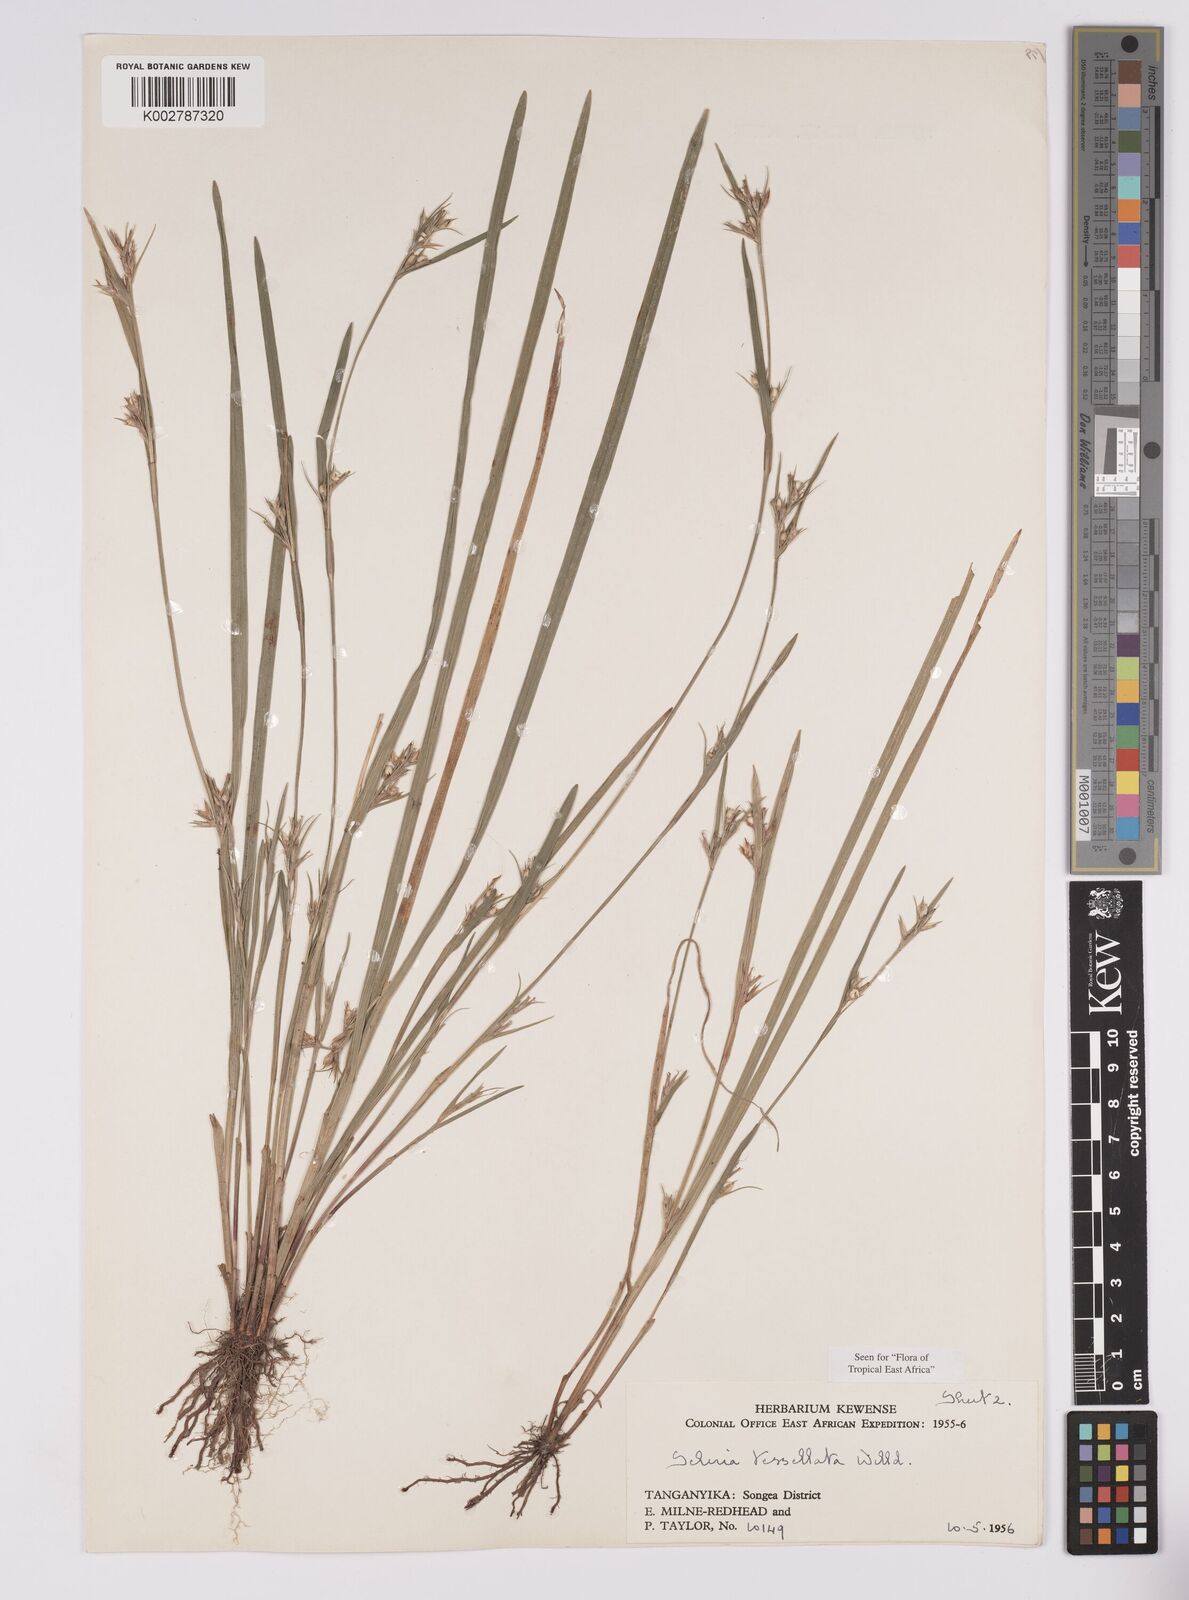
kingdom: Plantae
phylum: Tracheophyta
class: Liliopsida
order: Poales
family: Cyperaceae
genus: Scleria
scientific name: Scleria tessellata
